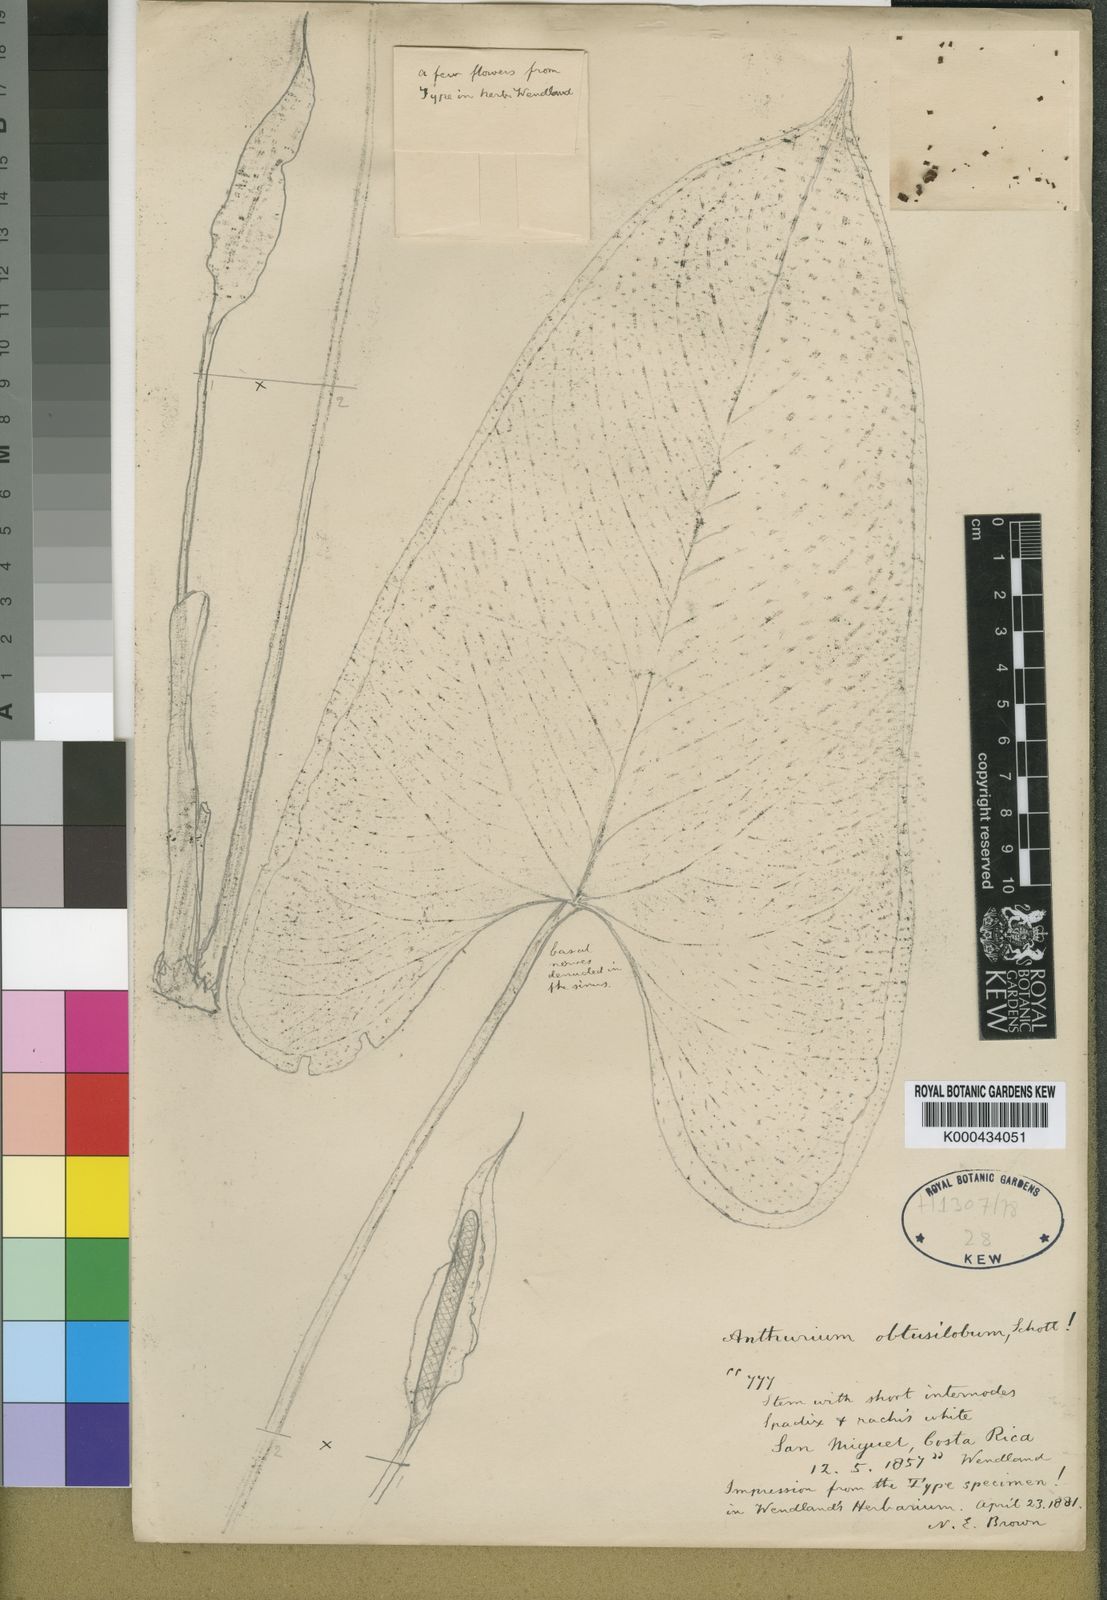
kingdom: Plantae
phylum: Tracheophyta
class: Liliopsida
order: Alismatales
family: Araceae
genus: Anthurium
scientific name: Anthurium obtusilobum
